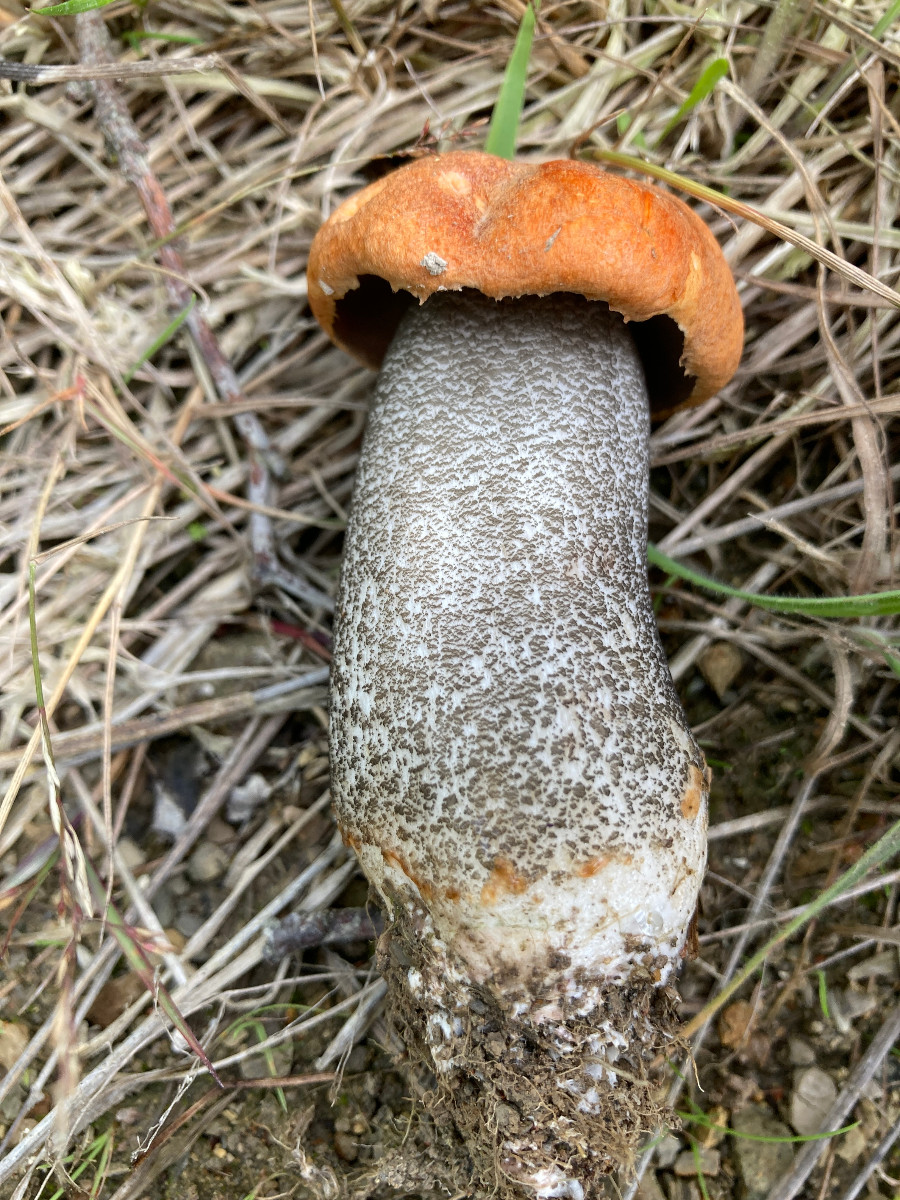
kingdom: Fungi
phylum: Basidiomycota
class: Agaricomycetes
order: Boletales
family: Boletaceae
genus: Leccinum
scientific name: Leccinum versipelle
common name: orange skælrørhat
